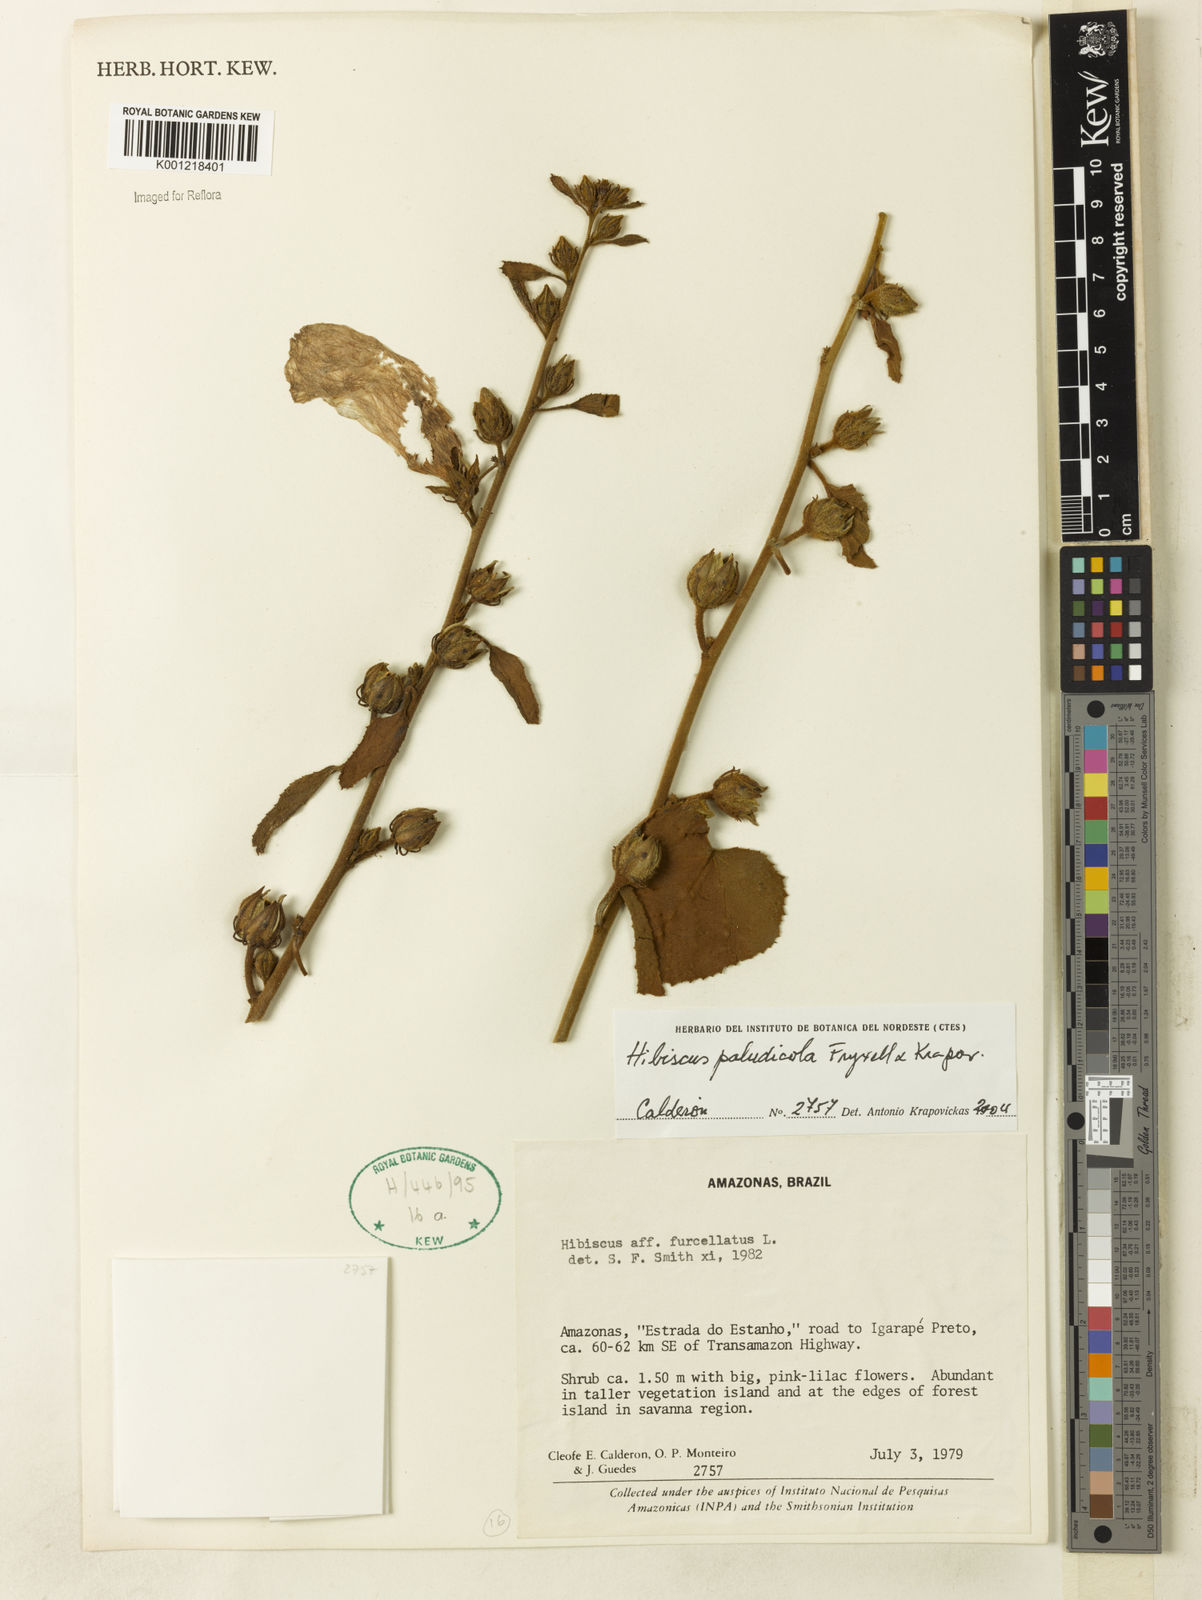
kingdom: Plantae
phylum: Tracheophyta
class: Magnoliopsida
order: Malvales
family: Malvaceae
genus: Hibiscus
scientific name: Hibiscus paludicola
